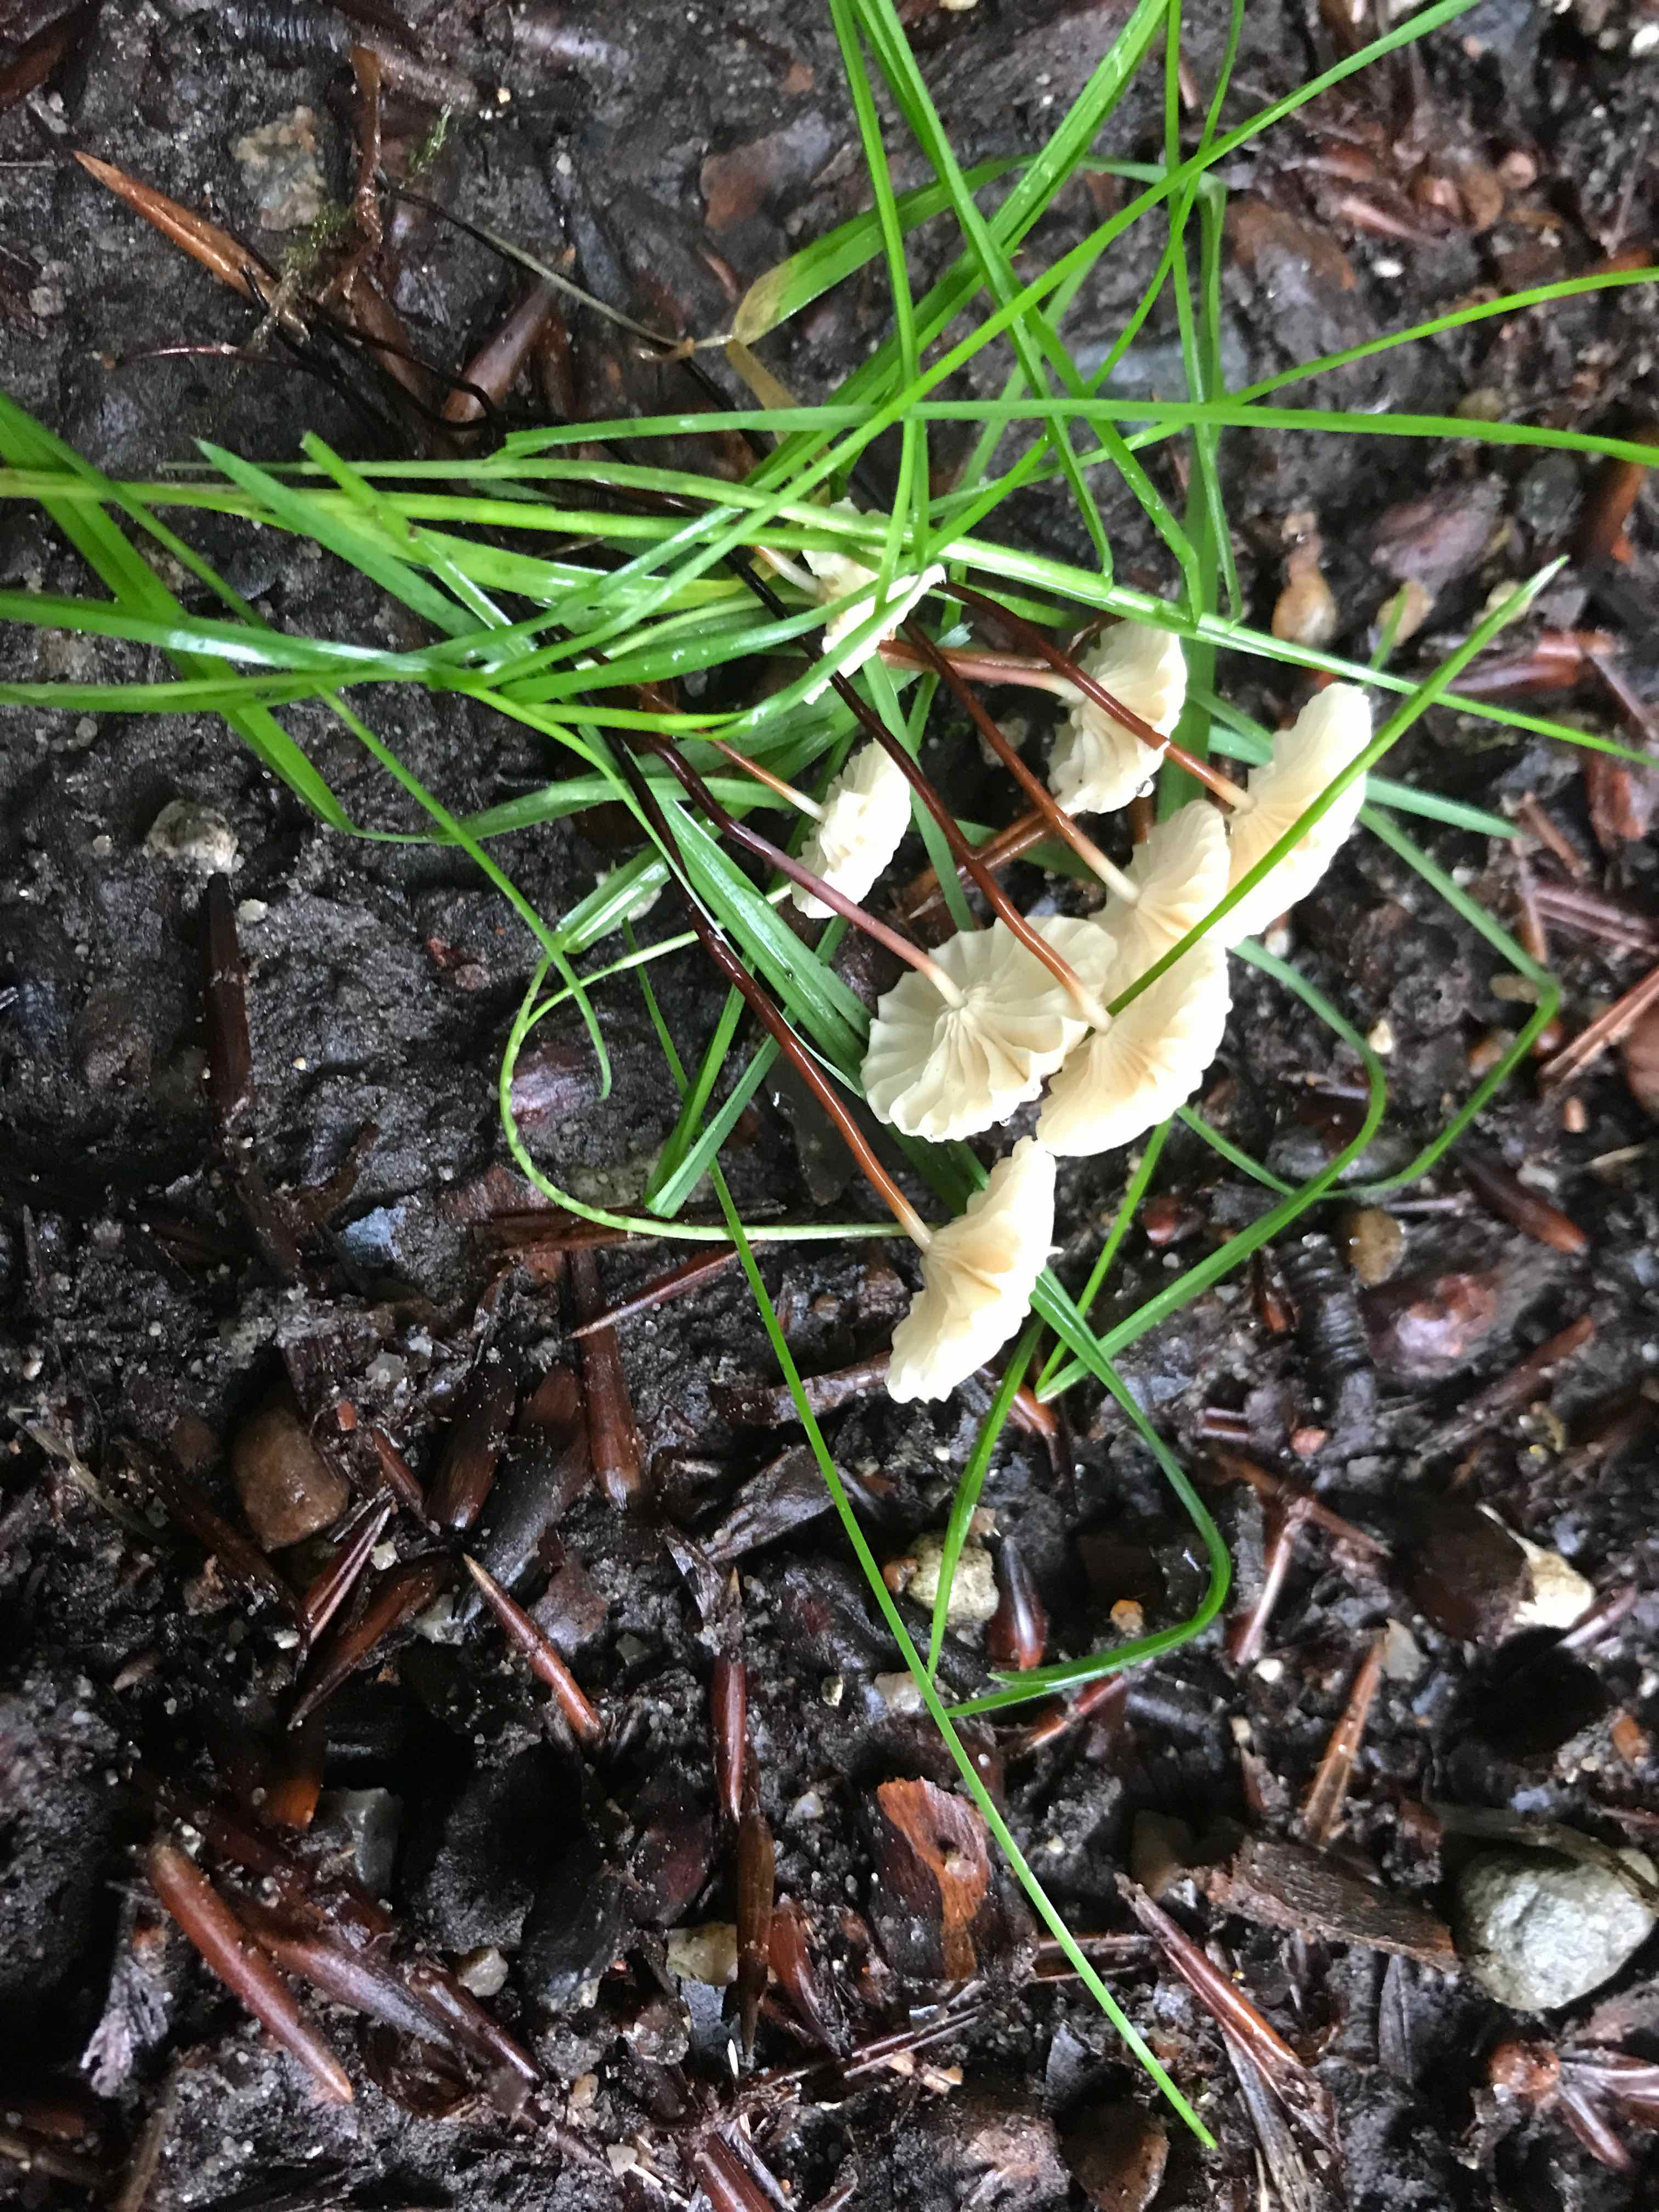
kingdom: Fungi
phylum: Basidiomycota
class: Agaricomycetes
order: Agaricales
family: Marasmiaceae
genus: Marasmius
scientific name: Marasmius rotula
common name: hjul-bruskhat
